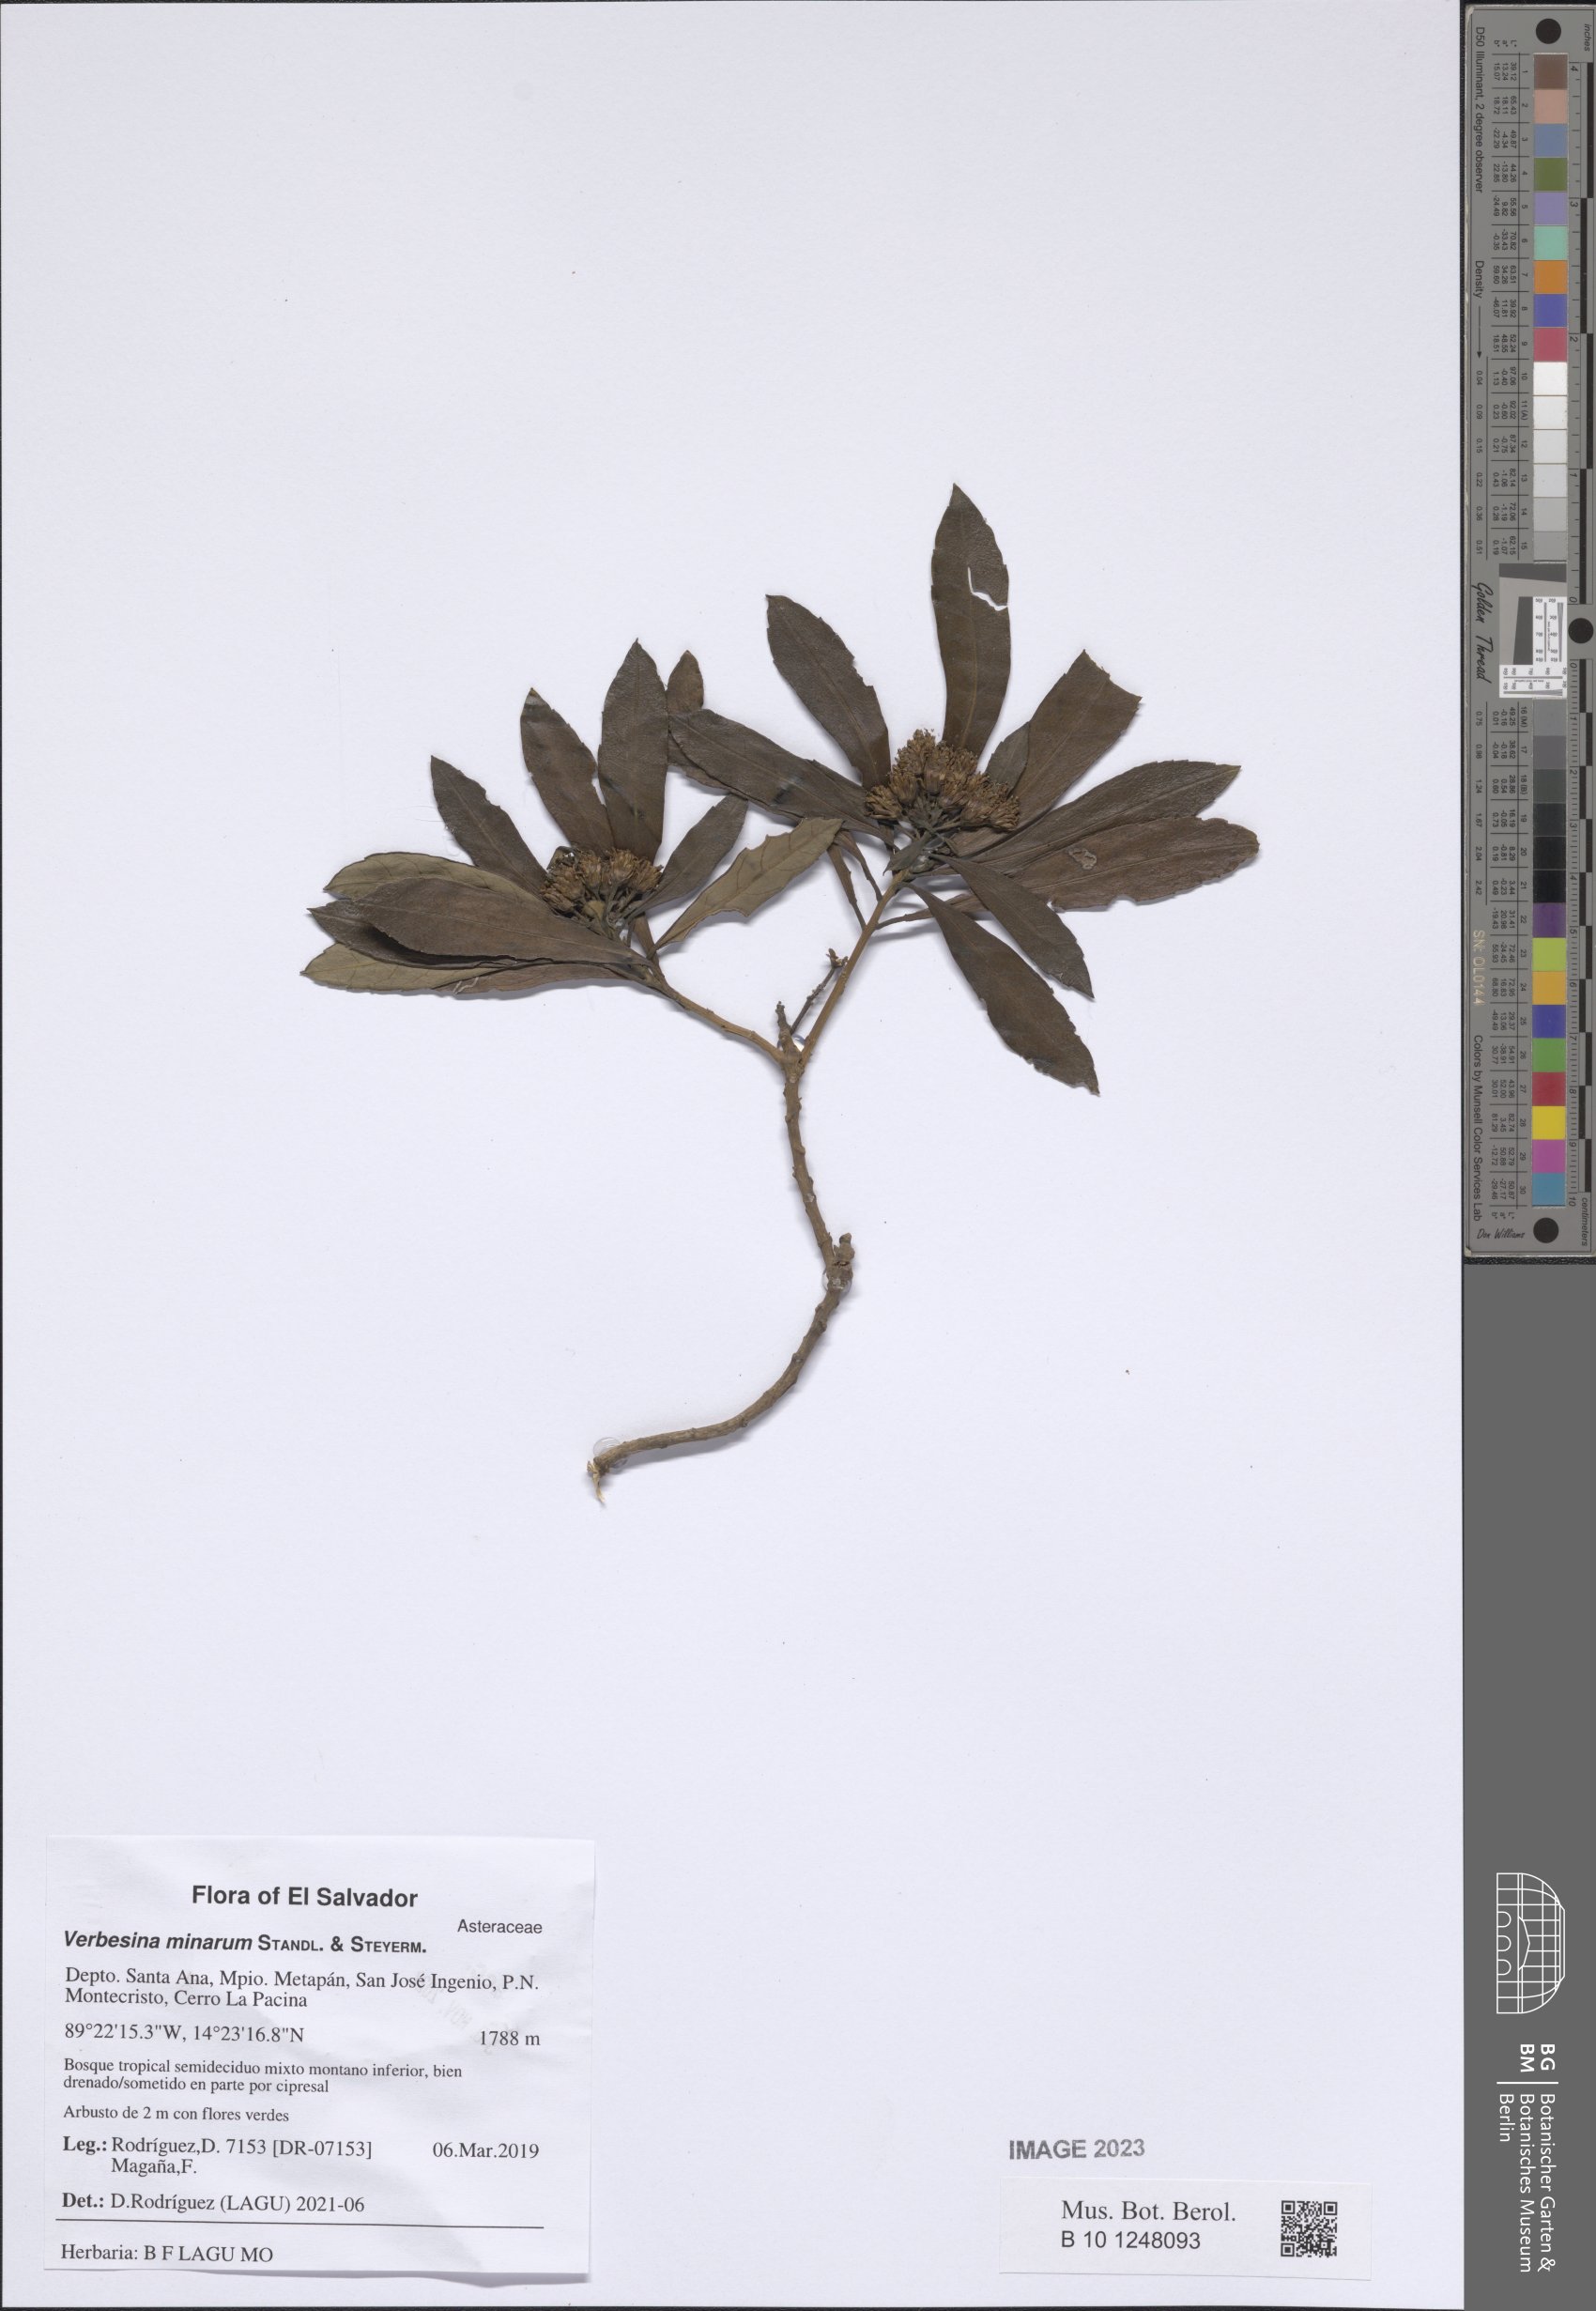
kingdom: Plantae
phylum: Tracheophyta
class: Magnoliopsida
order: Asterales
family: Asteraceae
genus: Verbesina
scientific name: Verbesina minarum
